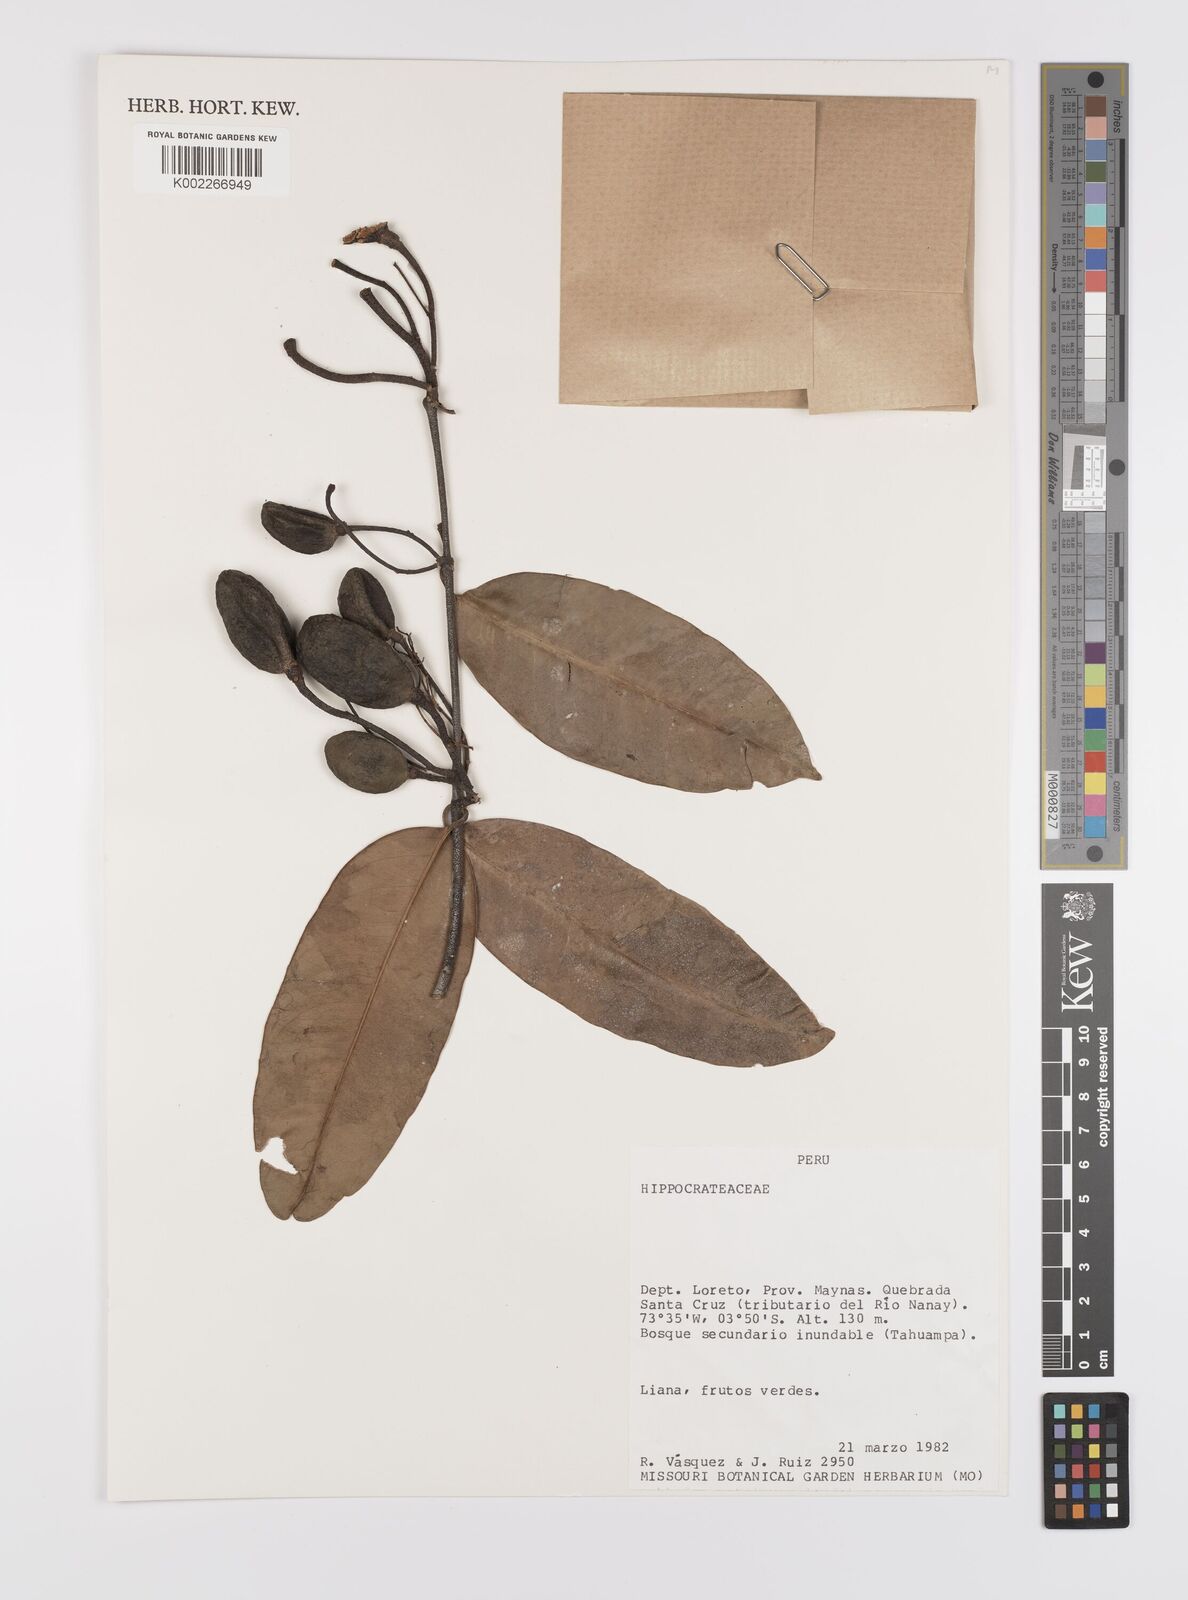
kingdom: Plantae
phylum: Tracheophyta
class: Magnoliopsida
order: Celastrales
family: Celastraceae
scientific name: Celastraceae
